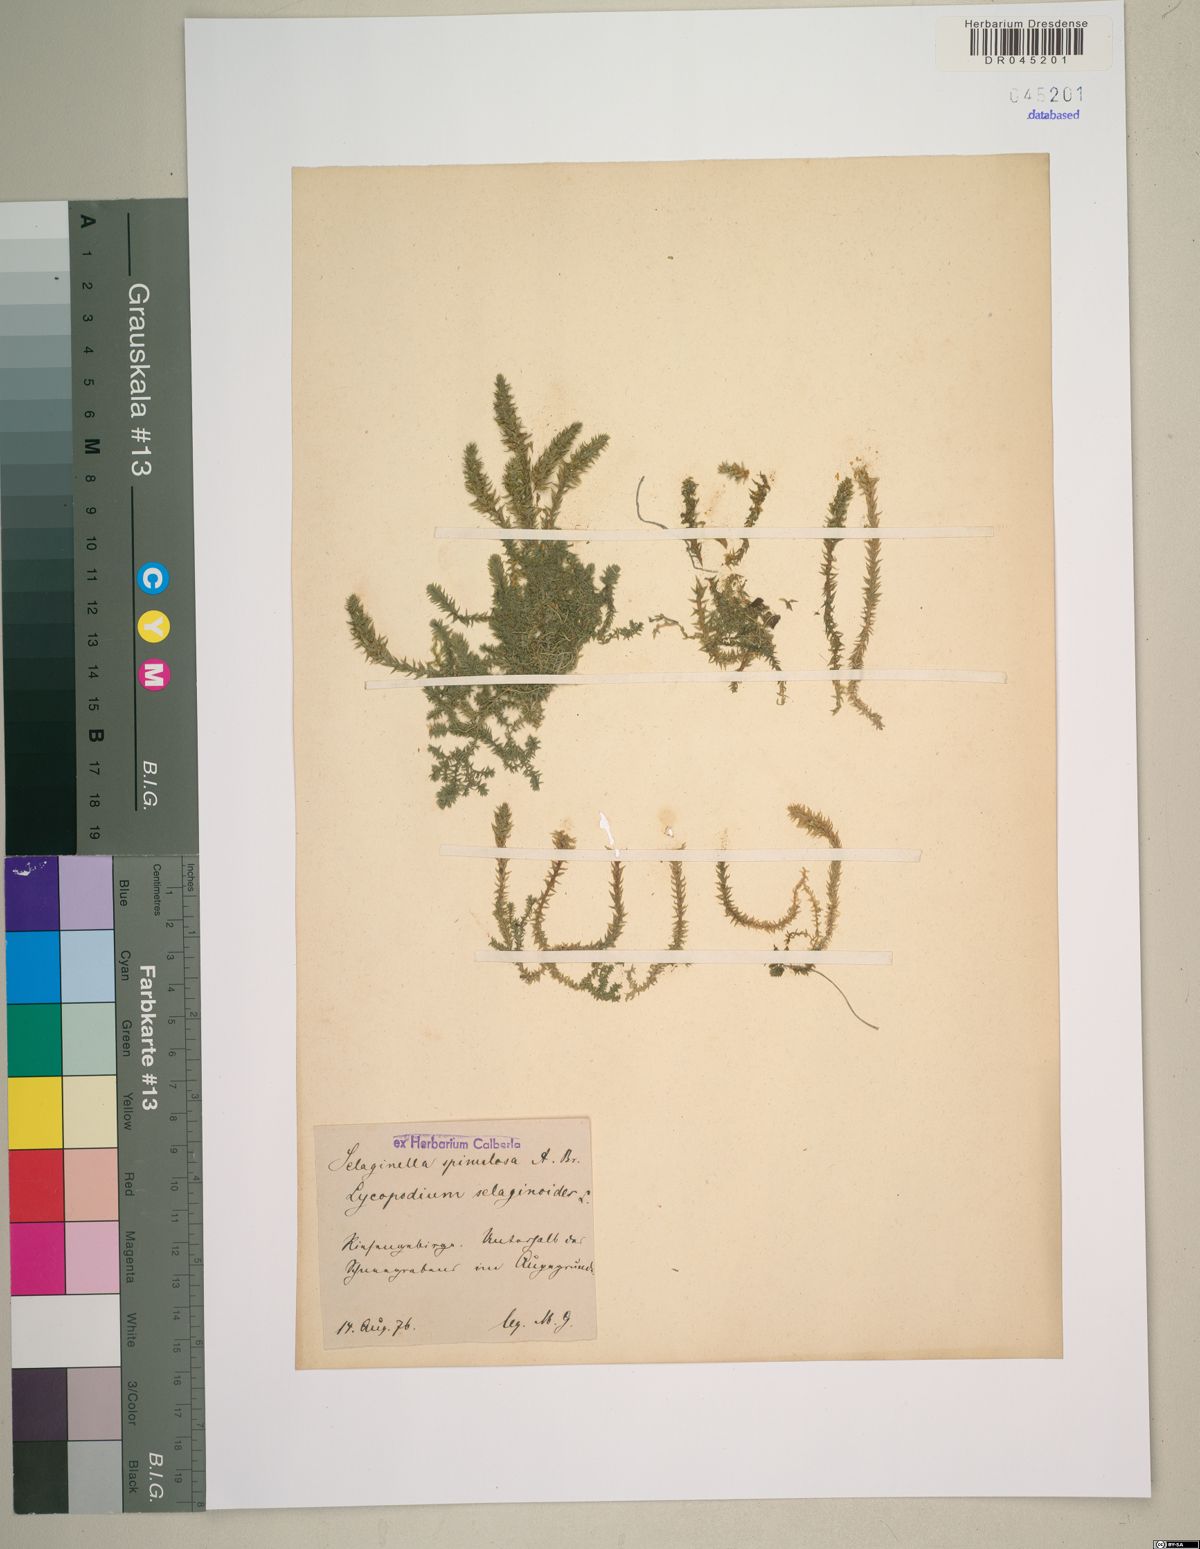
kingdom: Plantae
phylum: Tracheophyta
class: Lycopodiopsida
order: Selaginellales
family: Selaginellaceae
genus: Selaginella
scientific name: Selaginella selaginoides
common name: Prickly mountain-moss
